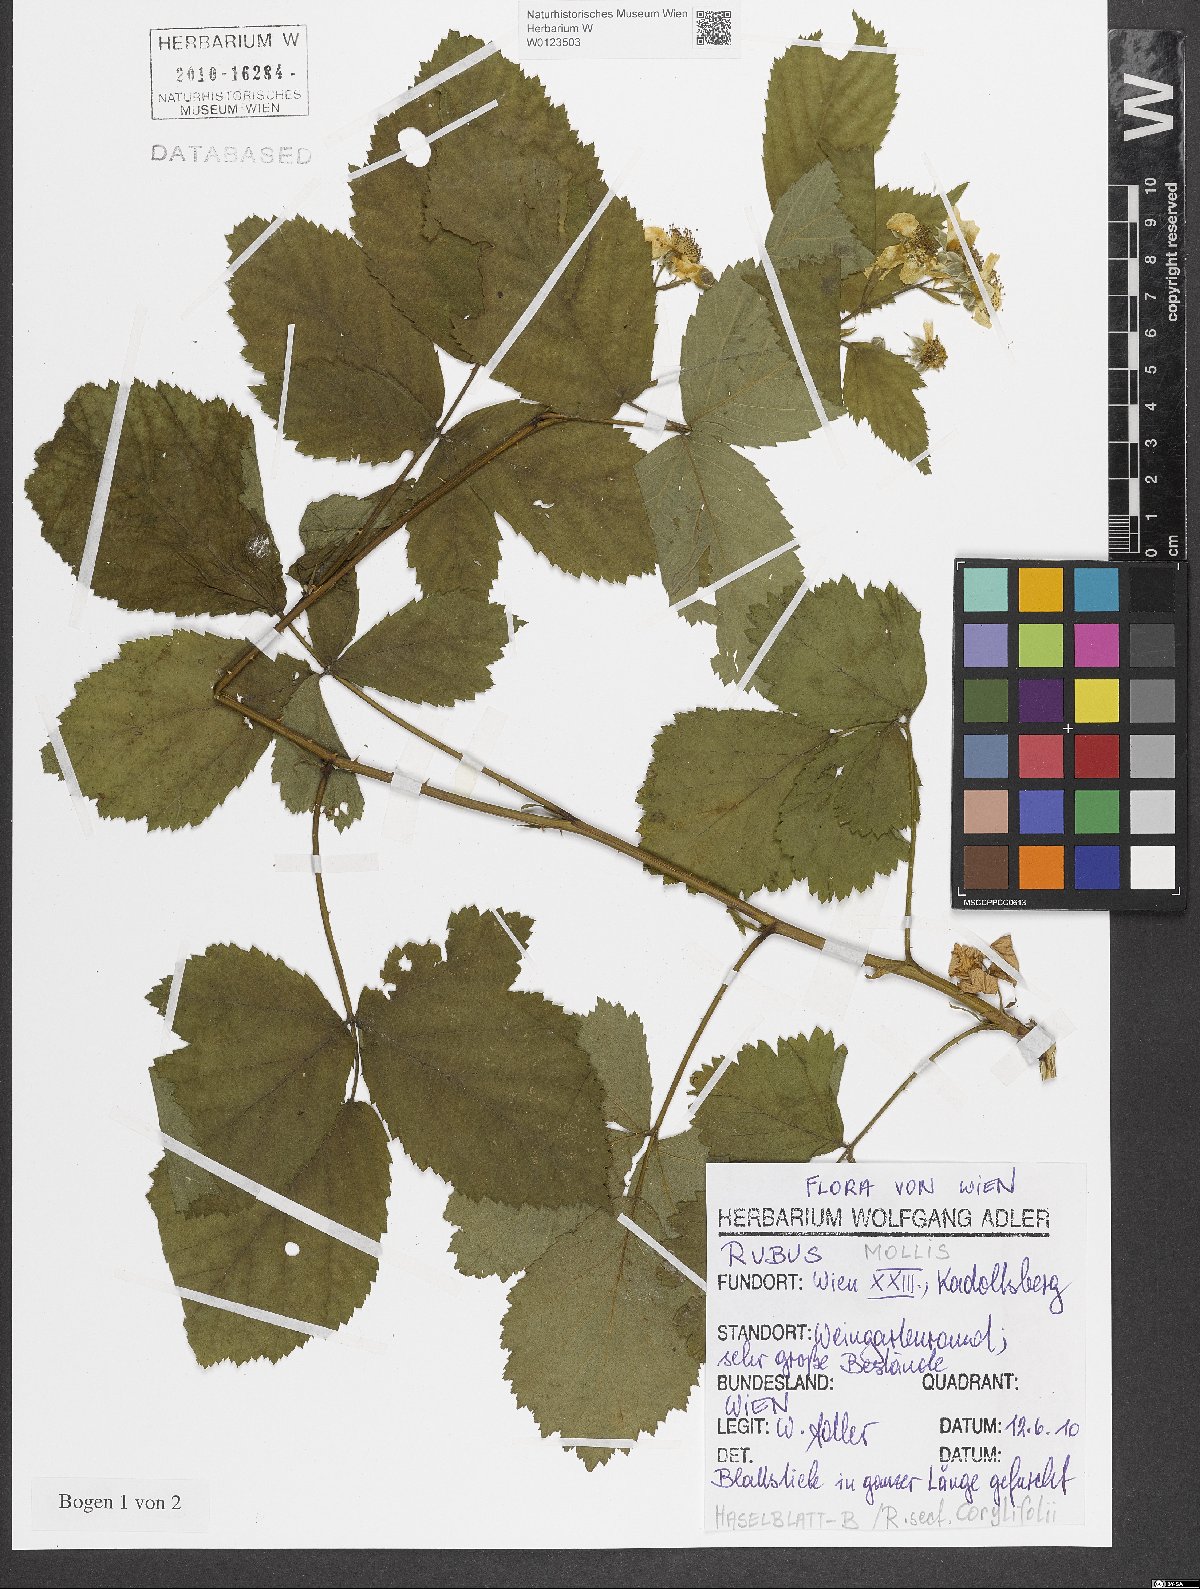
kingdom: Plantae
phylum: Tracheophyta
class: Magnoliopsida
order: Rosales
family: Rosaceae
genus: Rubus
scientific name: Rubus mollis
